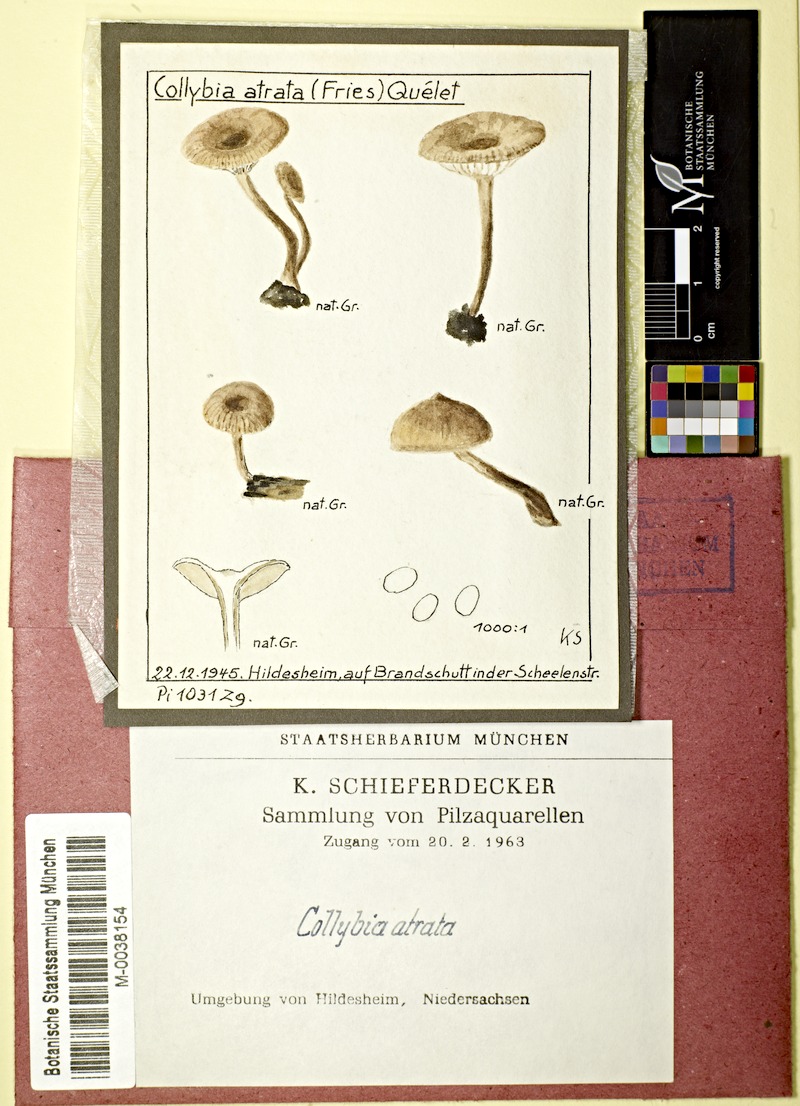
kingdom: Fungi
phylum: Basidiomycota
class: Agaricomycetes
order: Agaricales
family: Lyophyllaceae
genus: Tephrocybe
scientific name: Tephrocybe atrata
